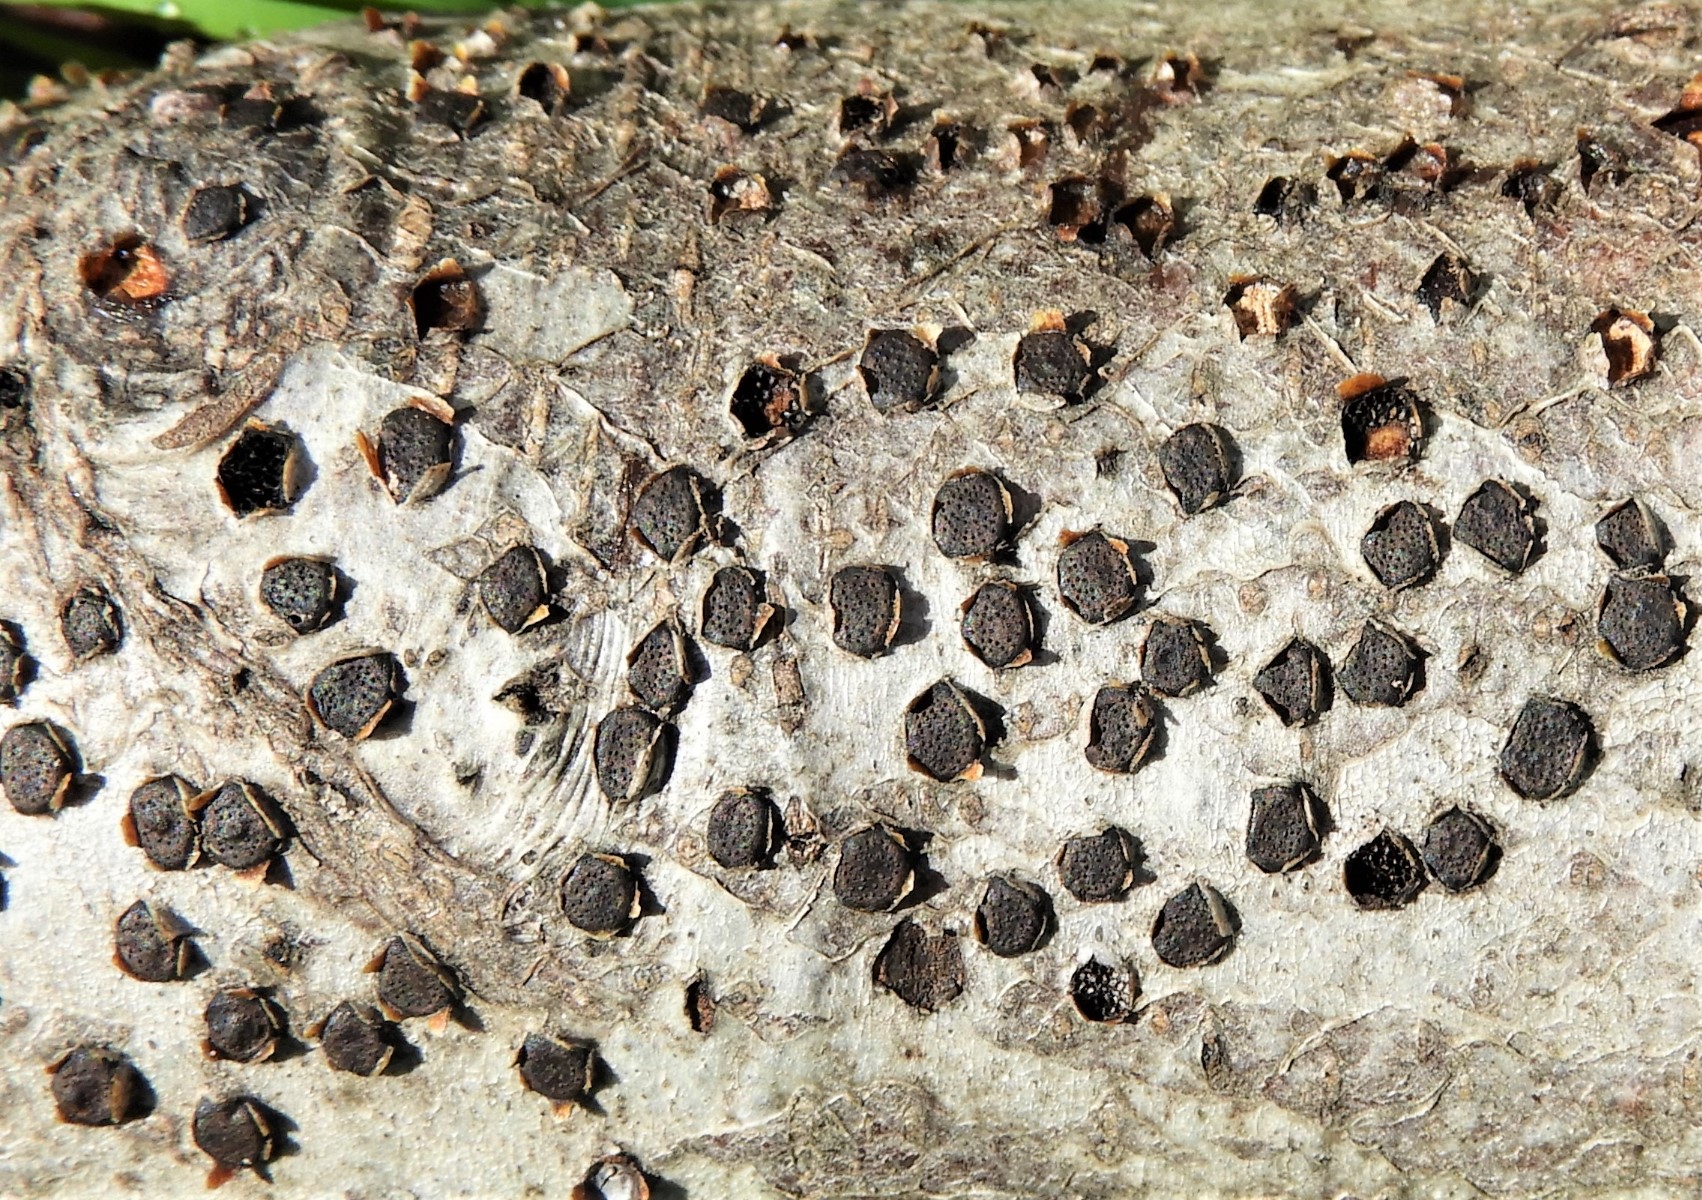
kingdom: Fungi
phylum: Ascomycota
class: Sordariomycetes
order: Xylariales
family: Diatrypaceae
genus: Diatrype
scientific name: Diatrype disciformis
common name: kant-kulskorpe
